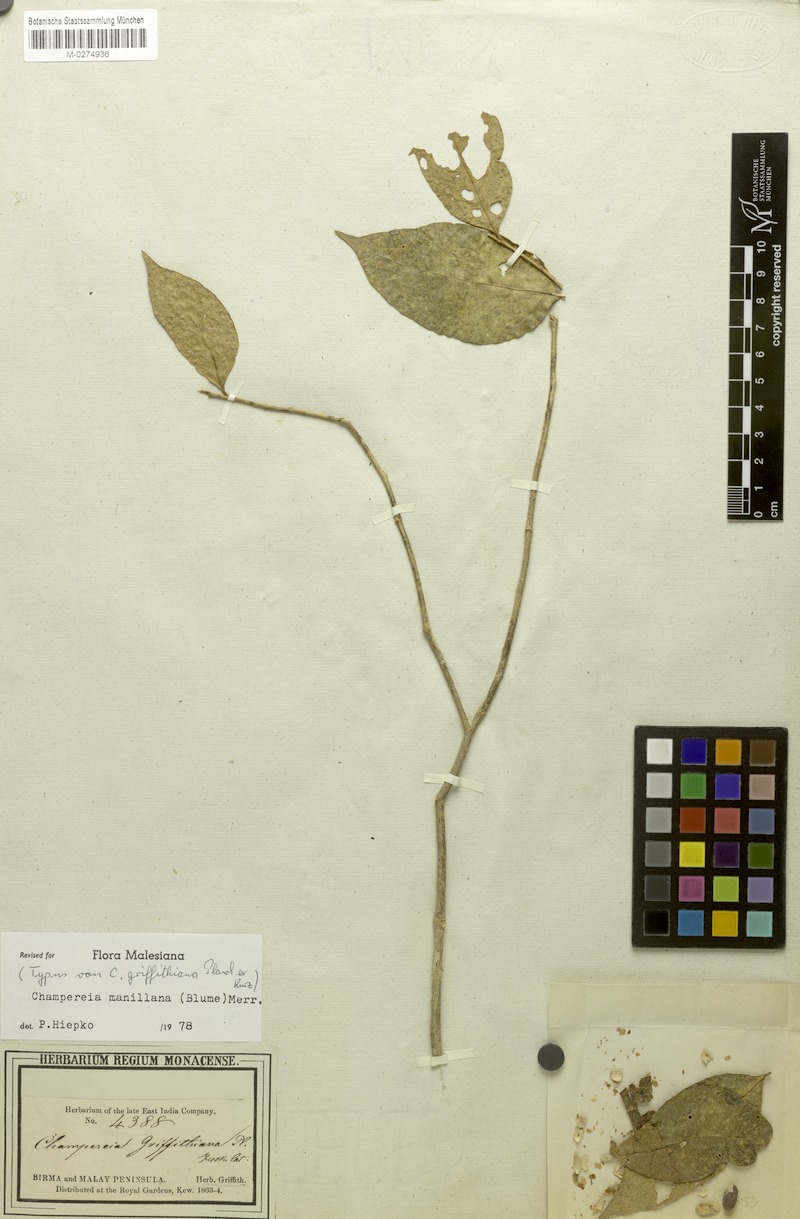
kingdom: Plantae
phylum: Tracheophyta
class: Magnoliopsida
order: Santalales
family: Opiliaceae
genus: Champereia
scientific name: Champereia manillana
